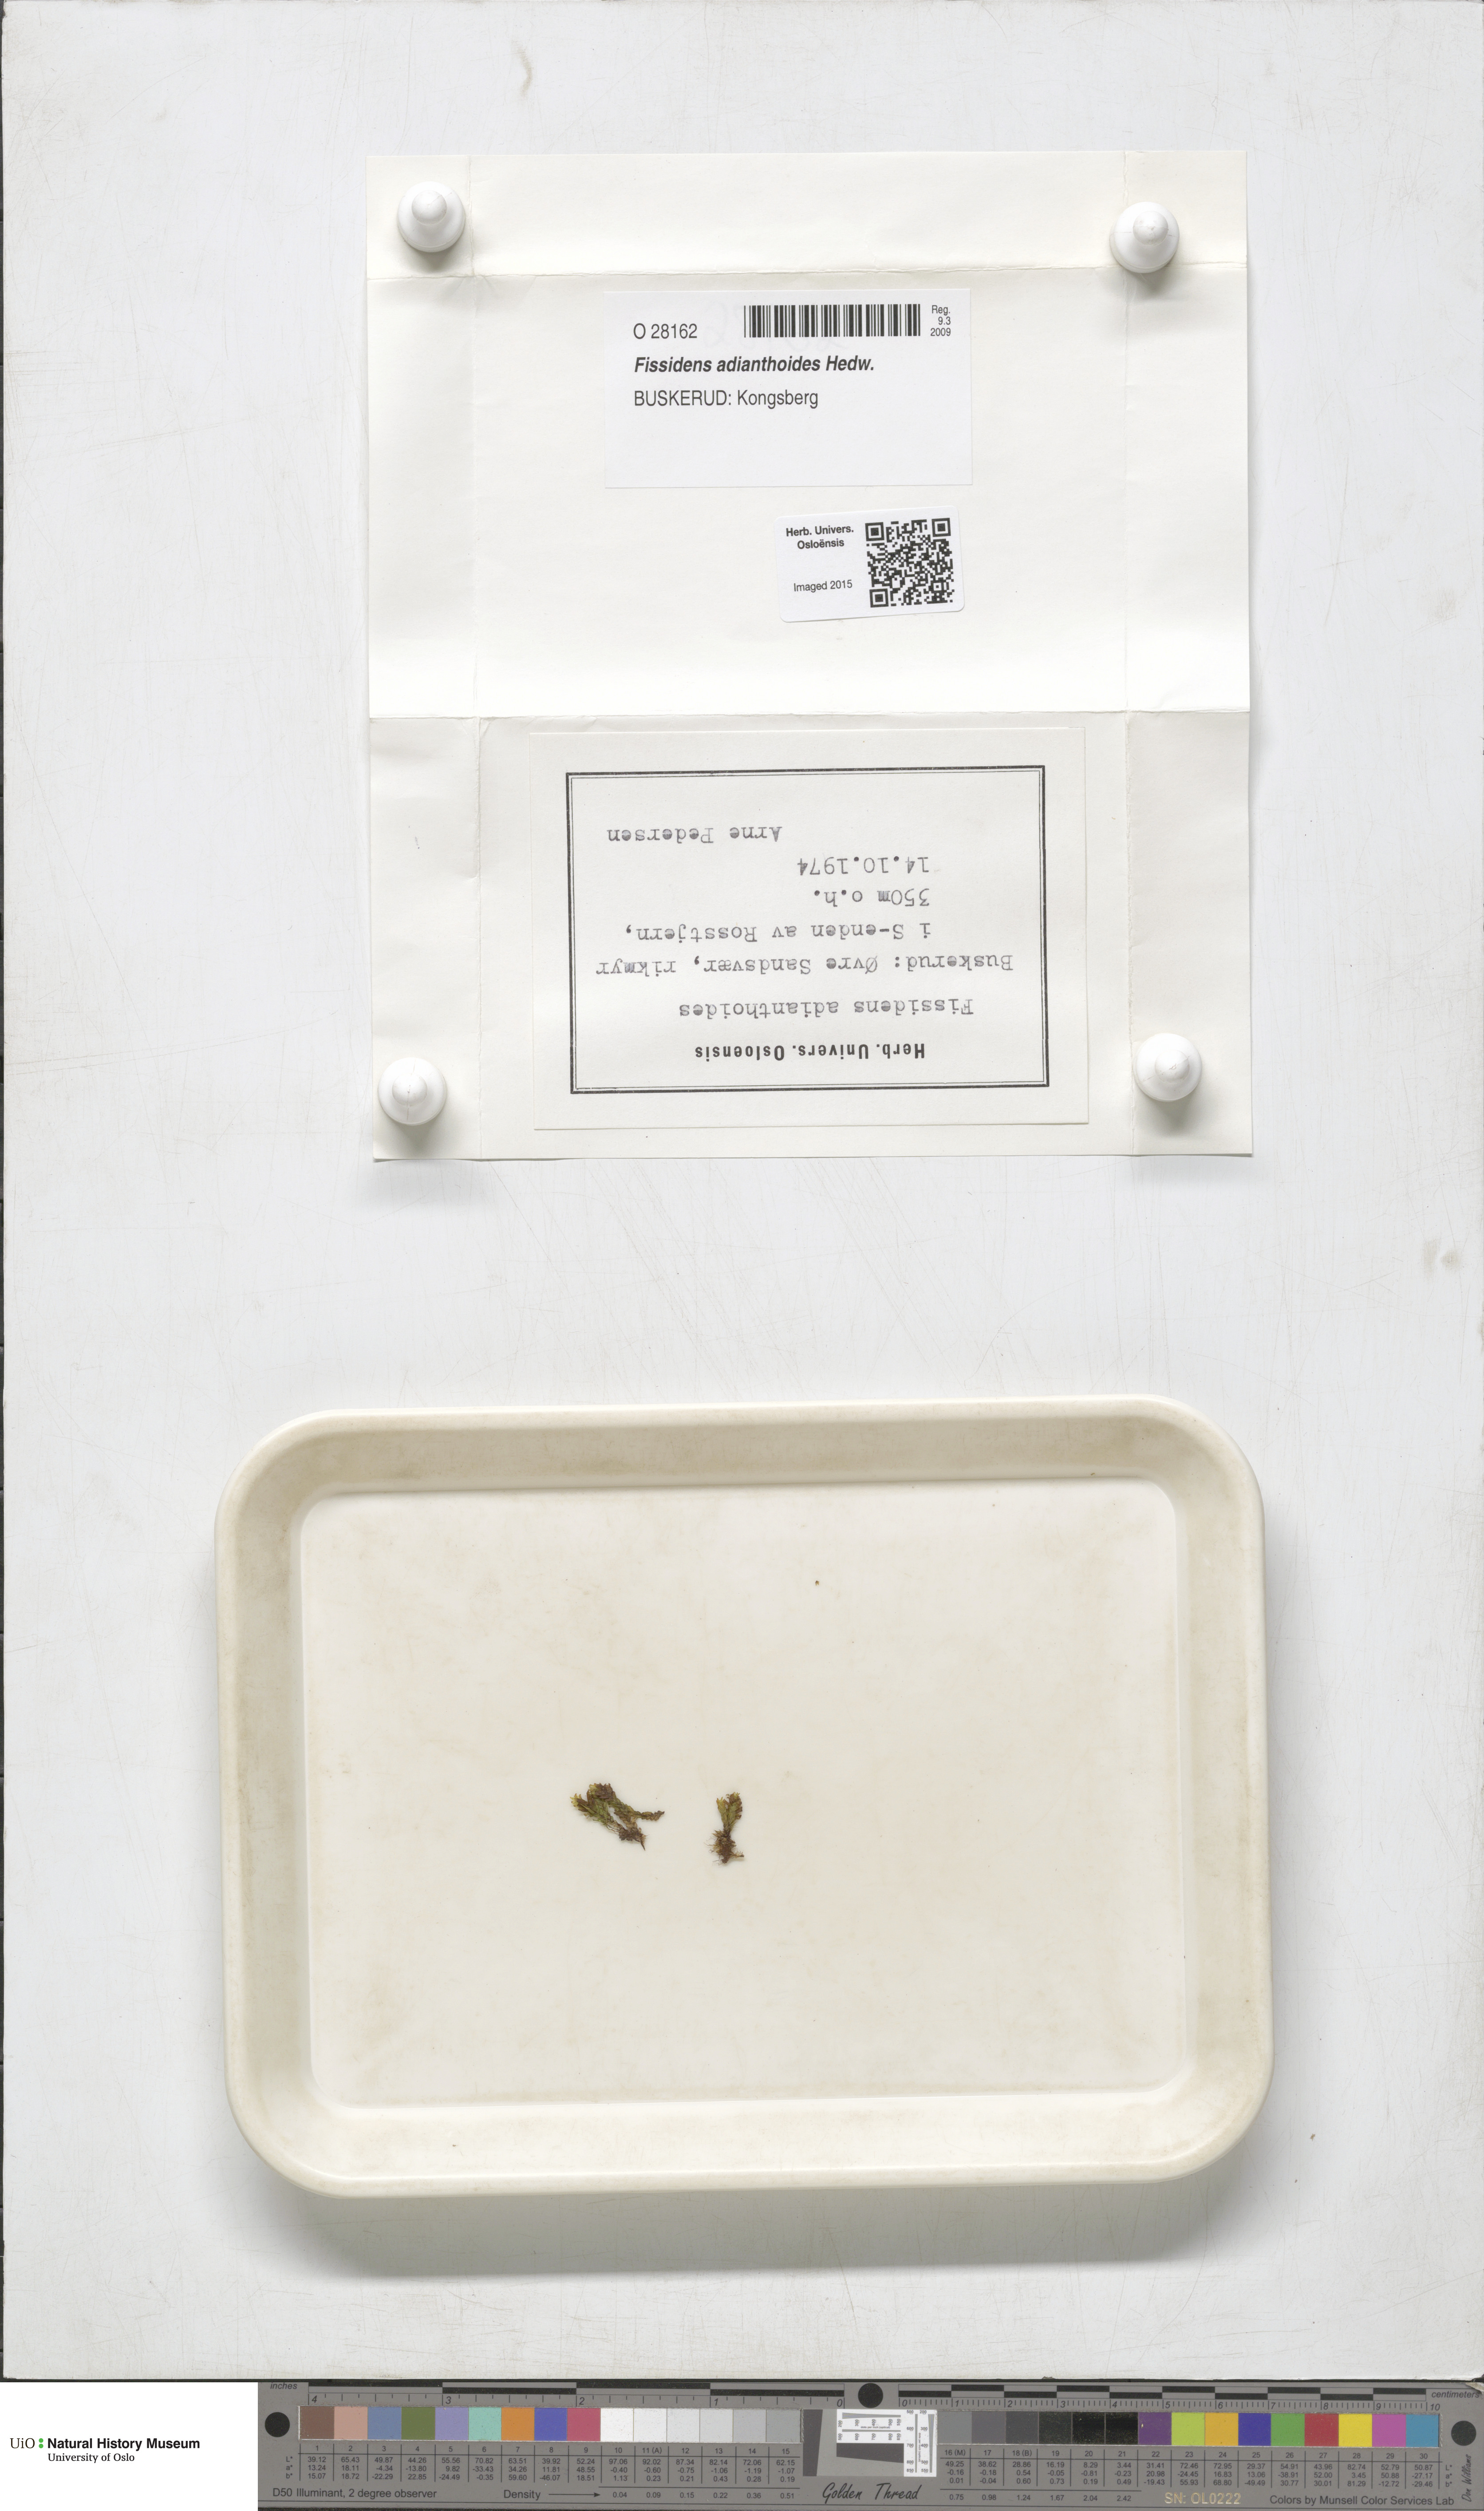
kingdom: Plantae
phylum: Bryophyta
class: Bryopsida
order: Dicranales
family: Fissidentaceae
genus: Fissidens
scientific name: Fissidens adianthoides
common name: Maidenhair pocket moss
